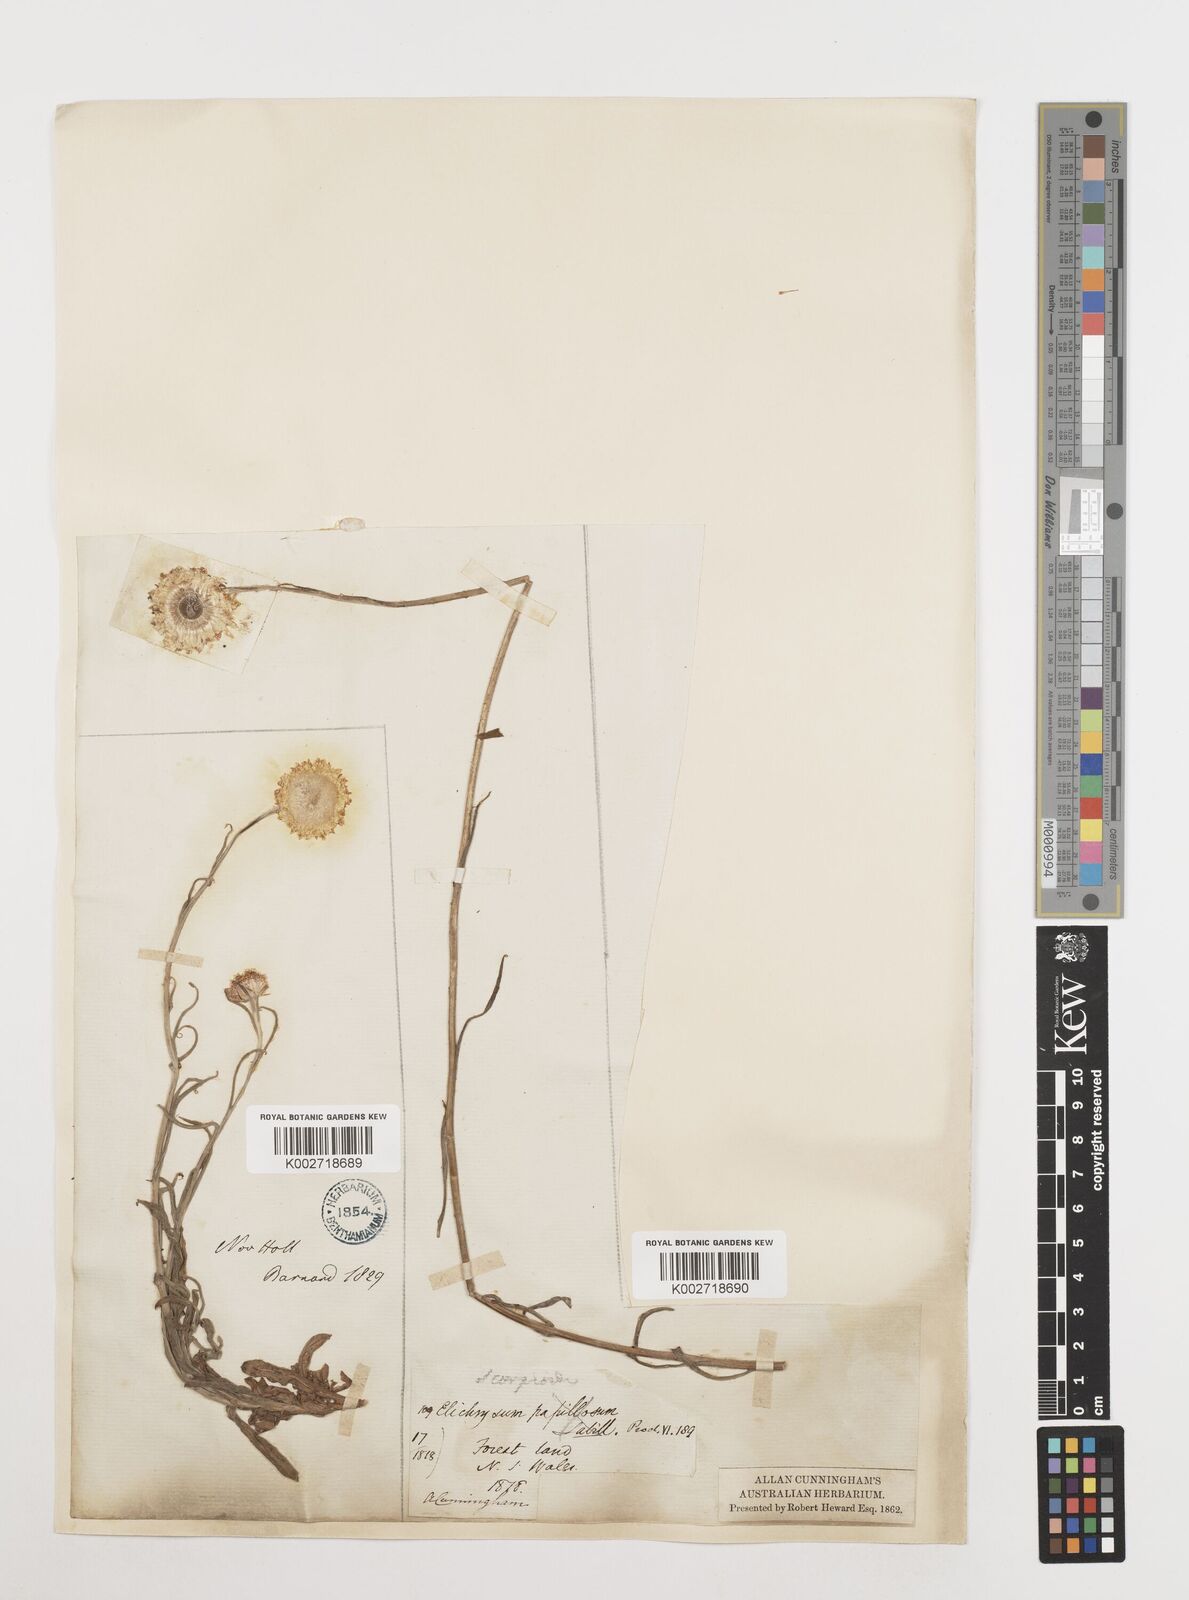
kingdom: Plantae
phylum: Tracheophyta
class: Magnoliopsida
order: Asterales
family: Asteraceae
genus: Coronidium
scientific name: Coronidium scorpioides
